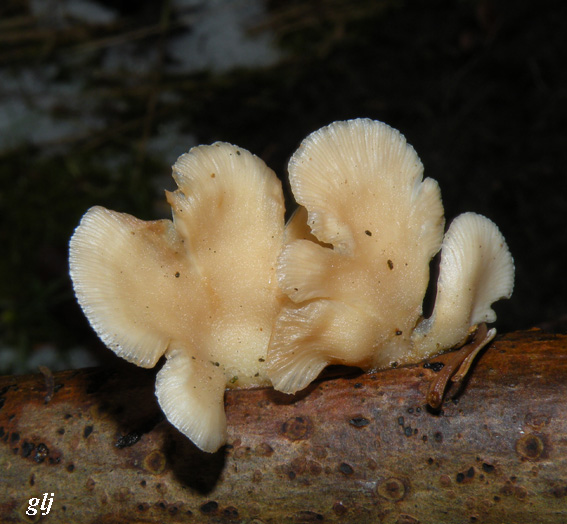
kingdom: Fungi
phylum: Basidiomycota
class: Agaricomycetes
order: Agaricales
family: Mycenaceae
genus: Panellus
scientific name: Panellus mitis
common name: mild epaulethat
